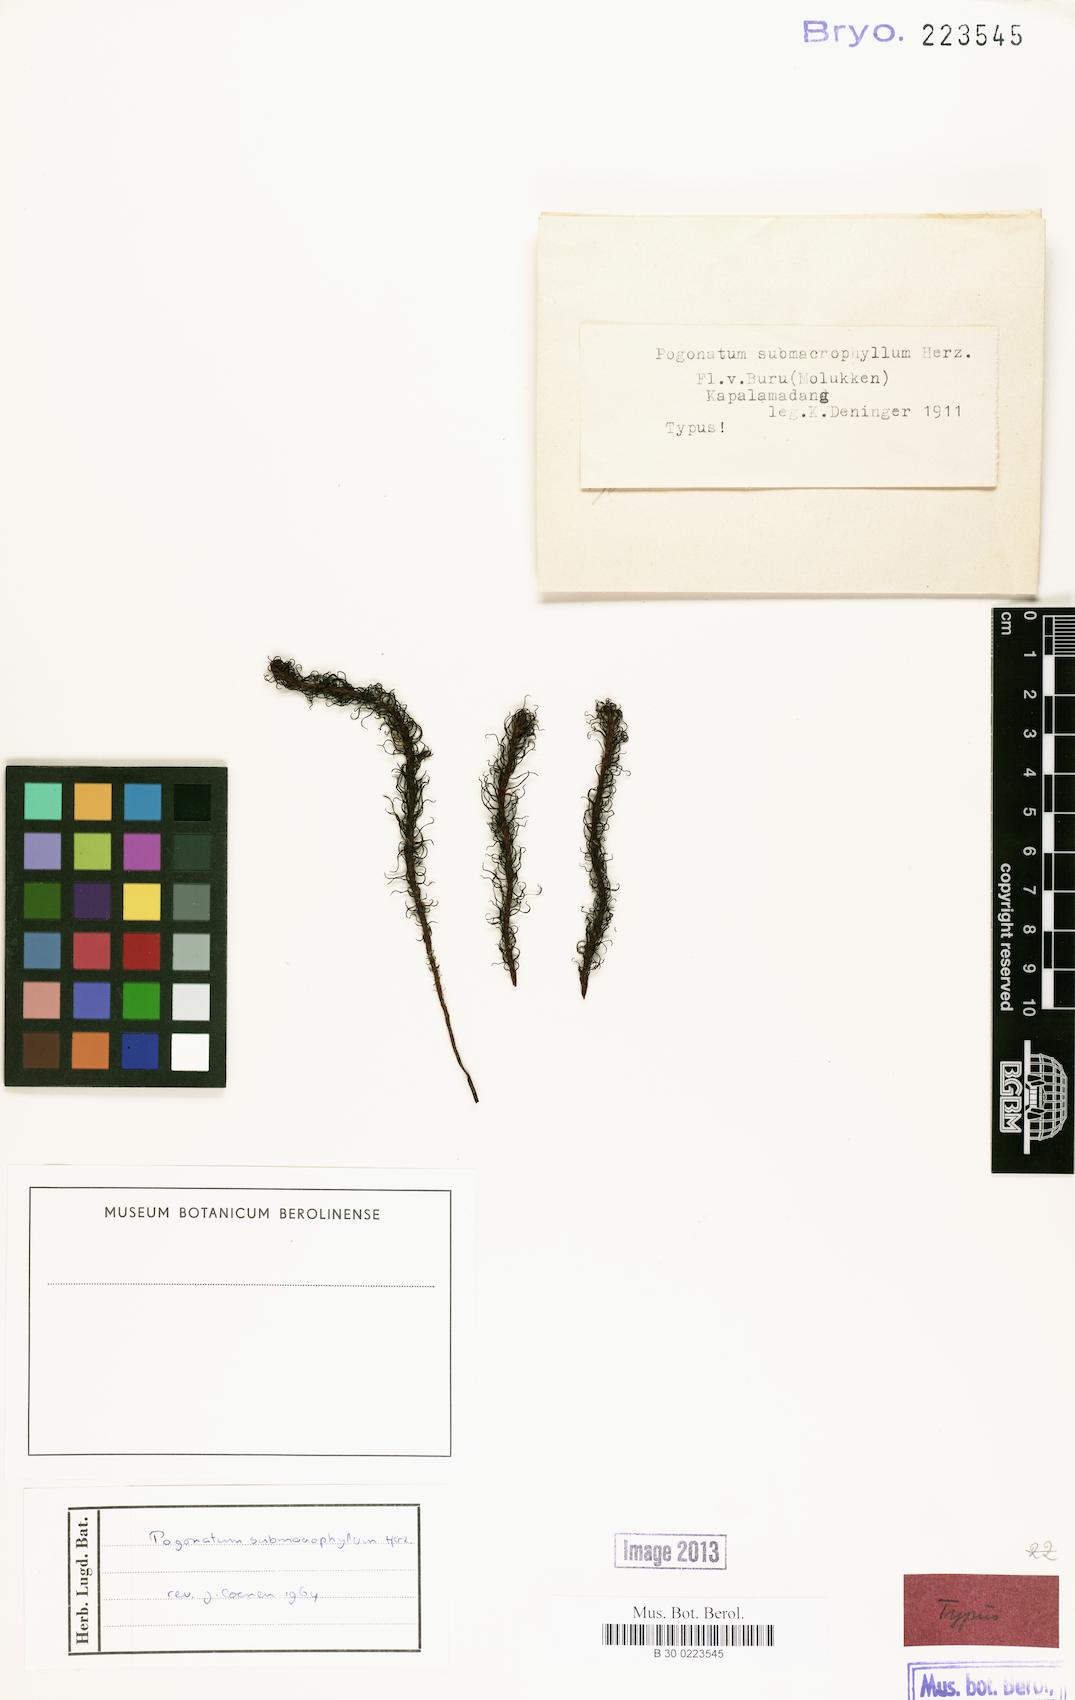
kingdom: Plantae
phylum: Bryophyta
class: Polytrichopsida
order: Polytrichales
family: Polytrichaceae
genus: Pogonatum
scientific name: Pogonatum cirratum
